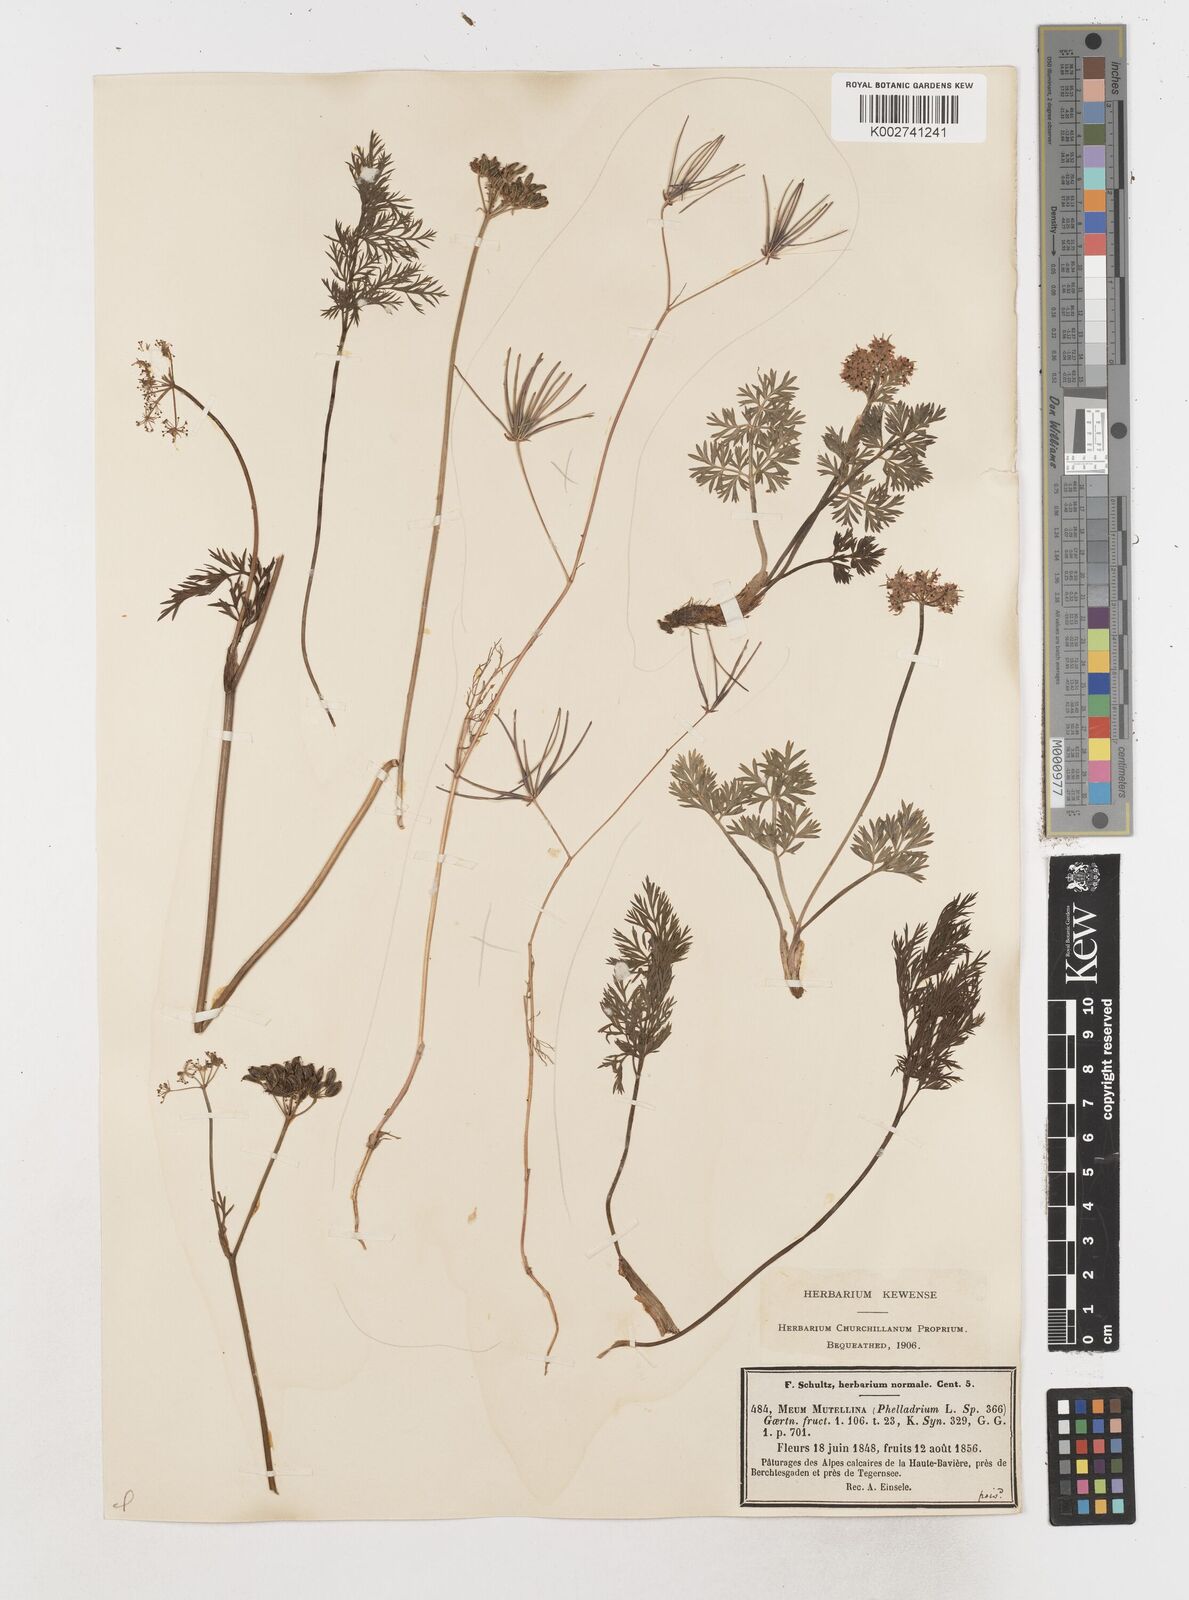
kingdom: Plantae
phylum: Tracheophyta
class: Magnoliopsida
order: Apiales
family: Apiaceae
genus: Mutellina
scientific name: Mutellina adonidifolia
